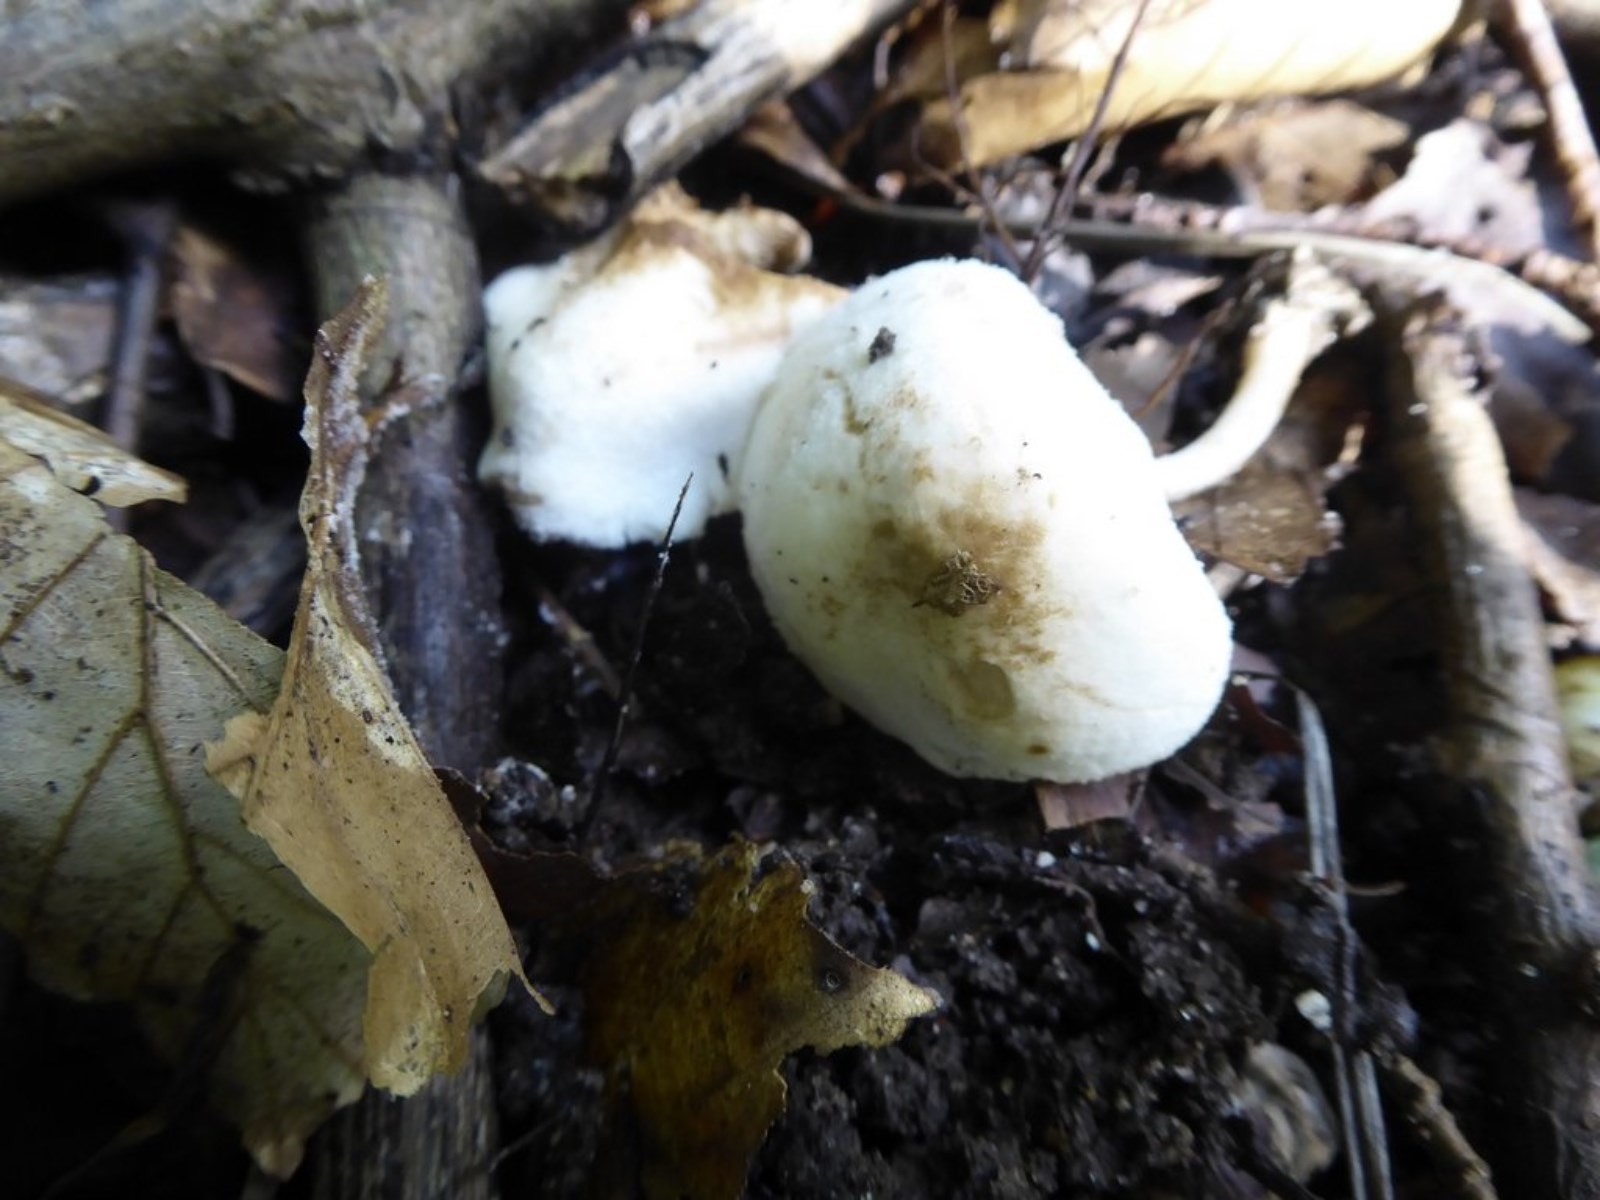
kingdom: Fungi
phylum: Basidiomycota
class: Agaricomycetes
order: Agaricales
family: Agaricaceae
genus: Cystolepiota
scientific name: Cystolepiota
